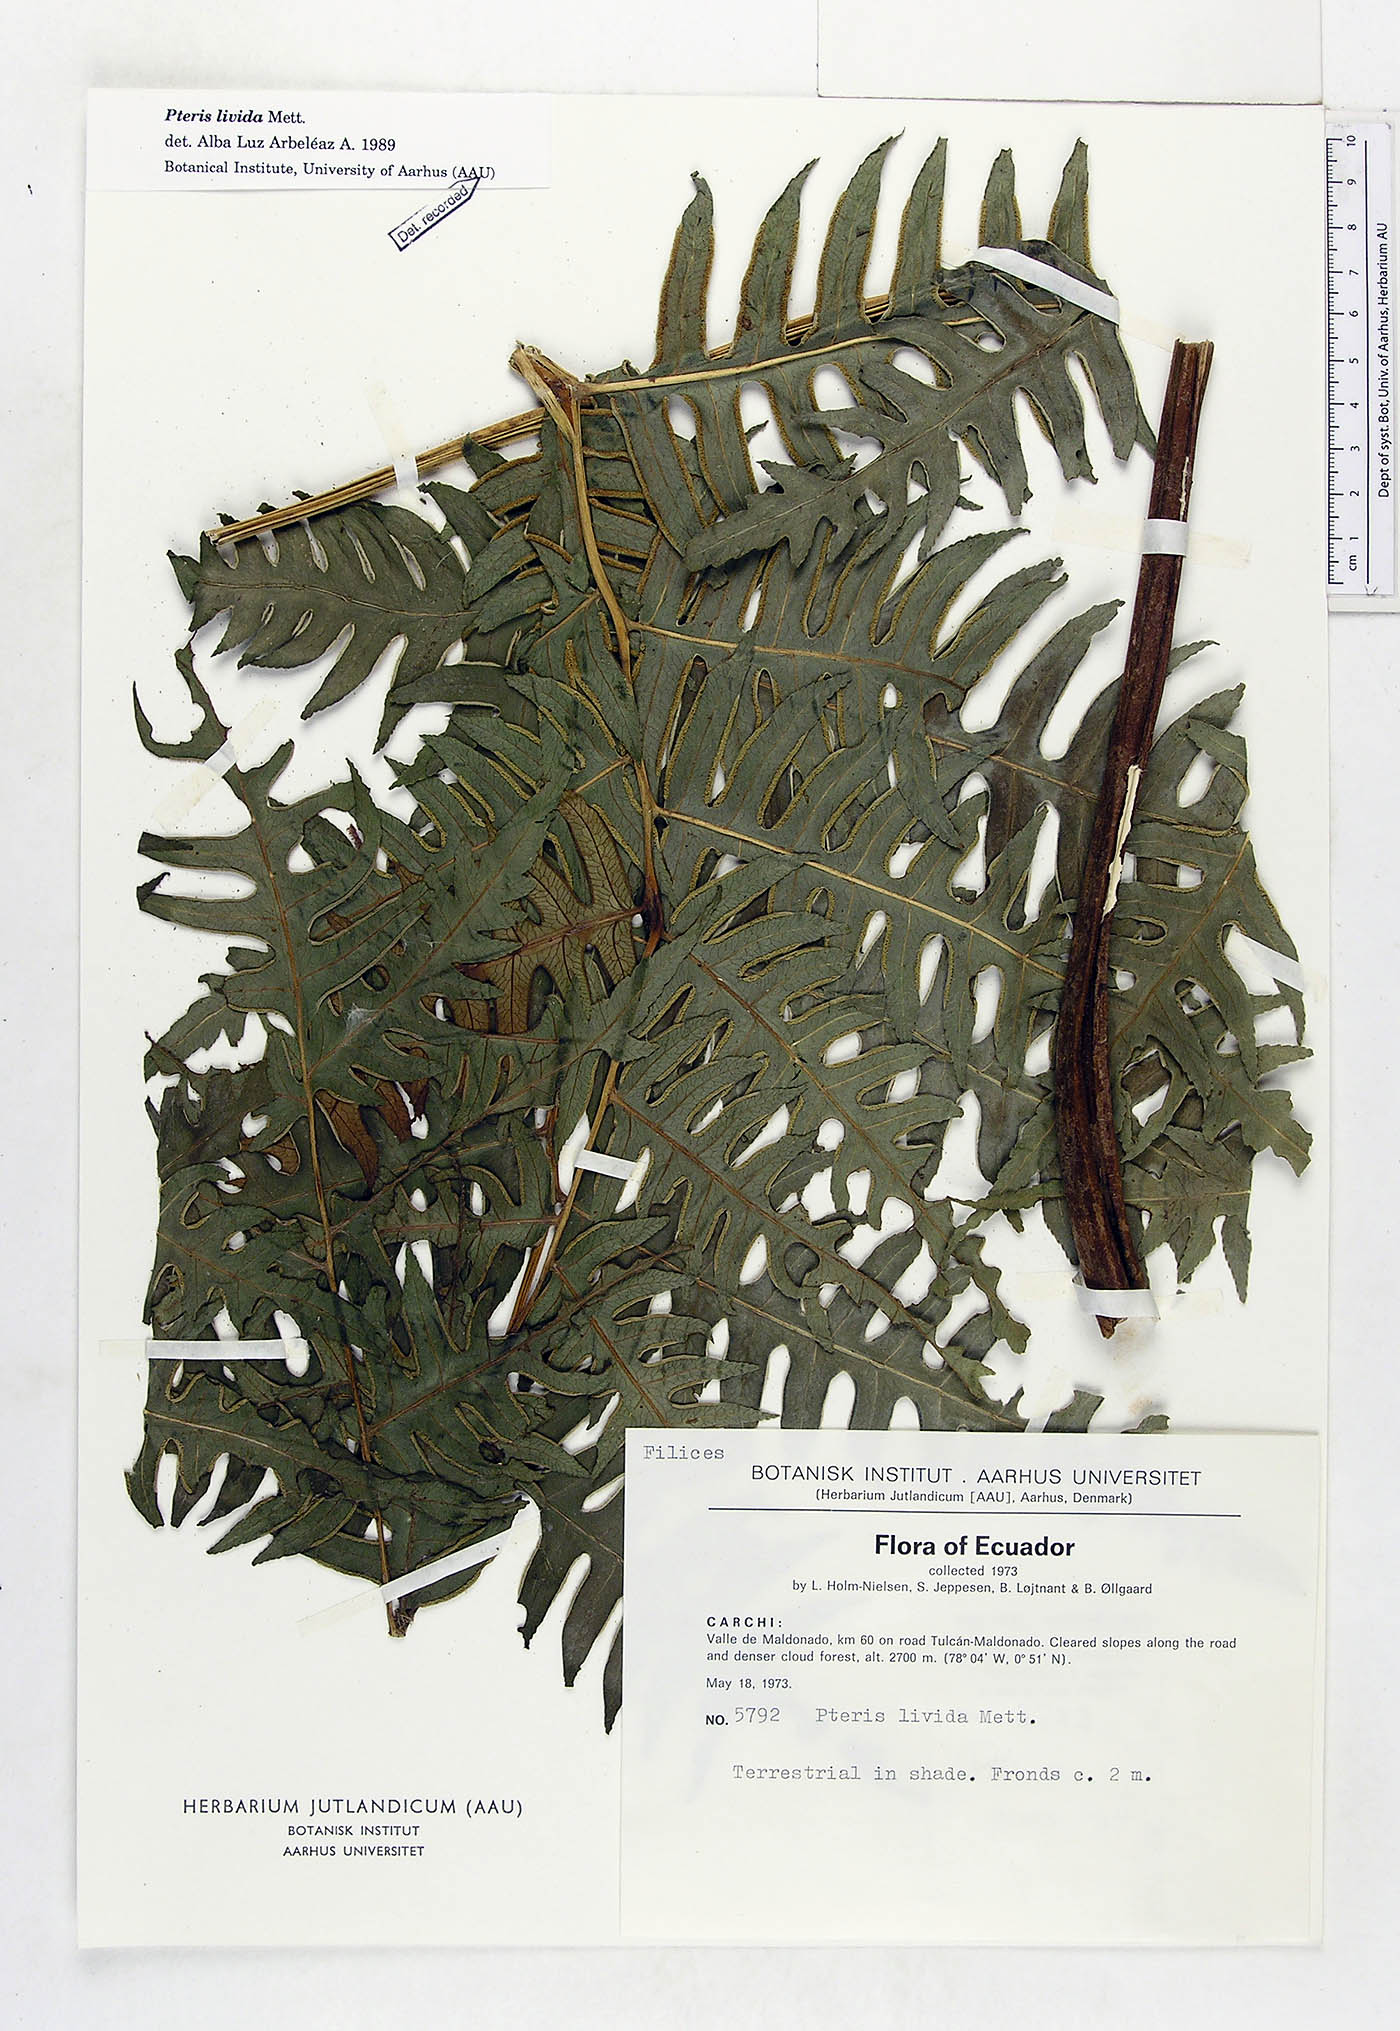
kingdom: Plantae
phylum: Tracheophyta
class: Polypodiopsida
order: Polypodiales
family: Pteridaceae
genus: Pteris
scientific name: Pteris livida
